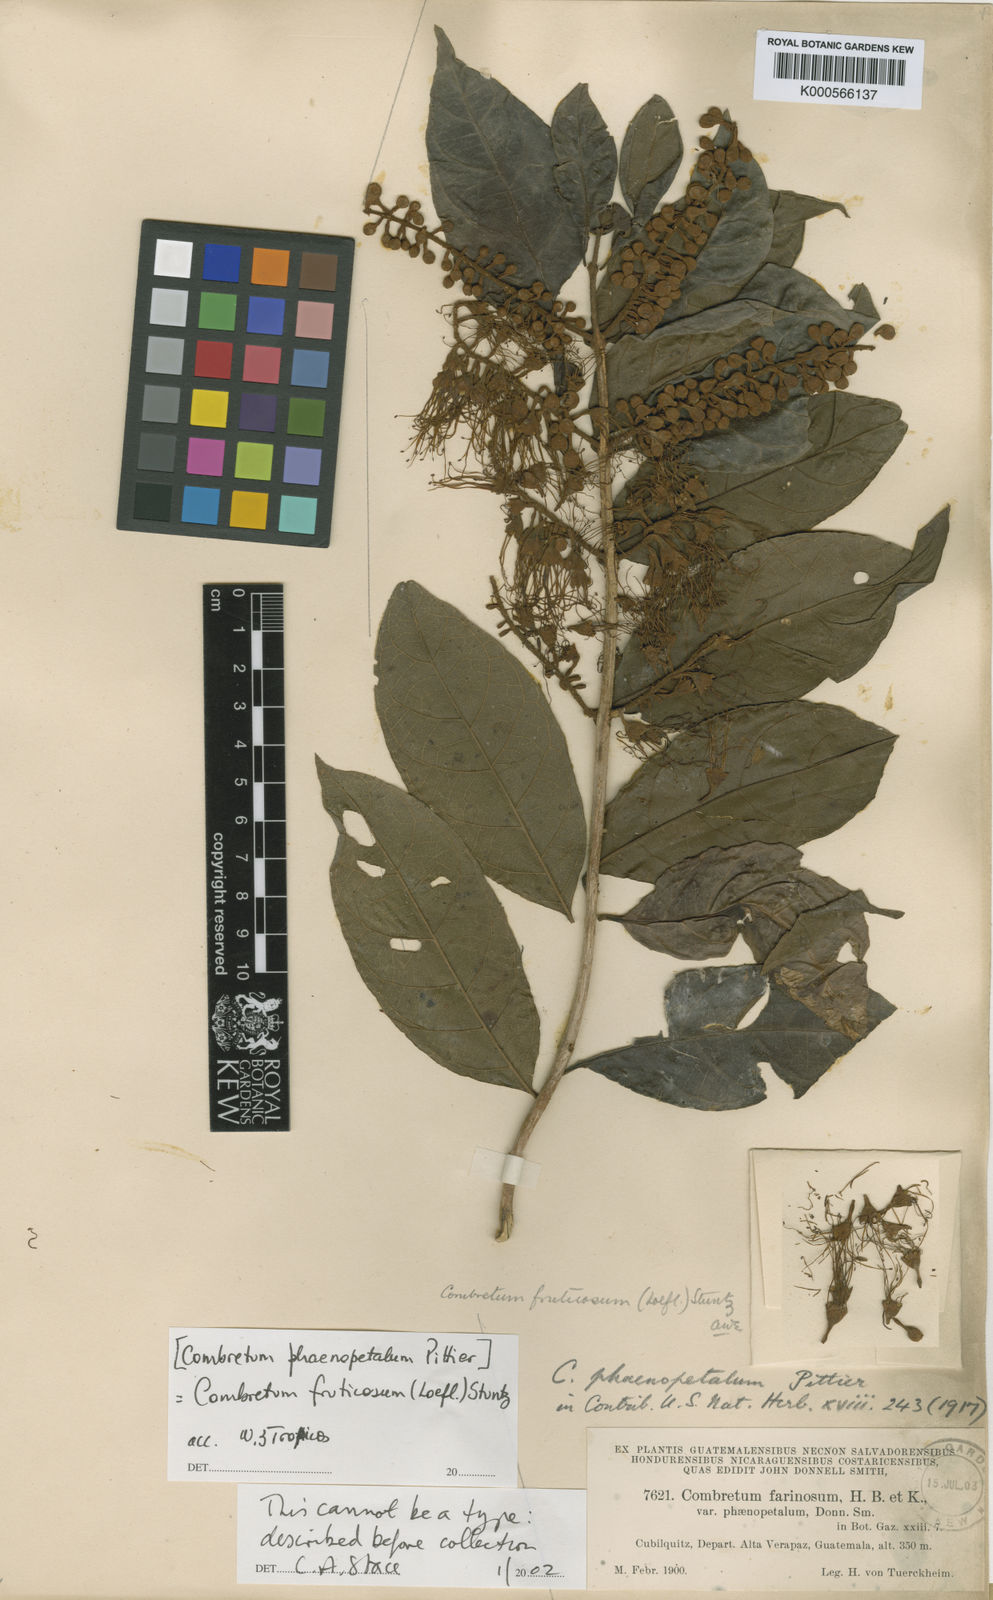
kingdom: Plantae
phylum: Tracheophyta
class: Magnoliopsida
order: Myrtales
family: Combretaceae
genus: Combretum
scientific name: Combretum fruticosum
